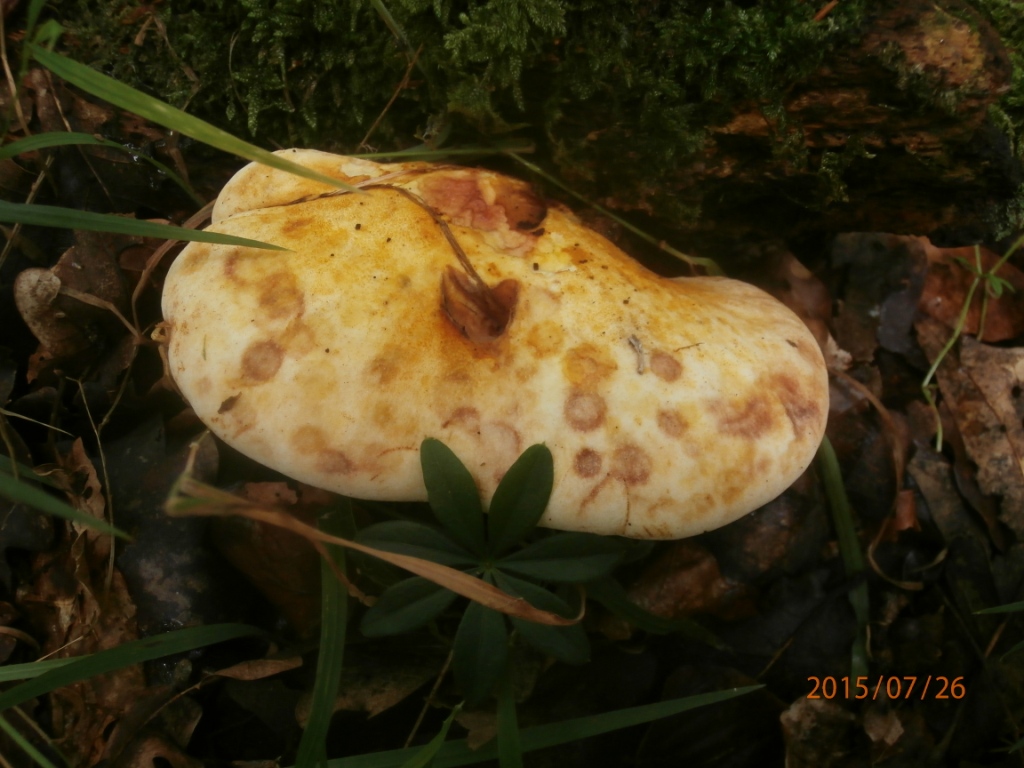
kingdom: Fungi
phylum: Basidiomycota
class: Agaricomycetes
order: Polyporales
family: Fomitopsidaceae
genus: Buglossoporus
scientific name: Buglossoporus quercinus
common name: egetunge
